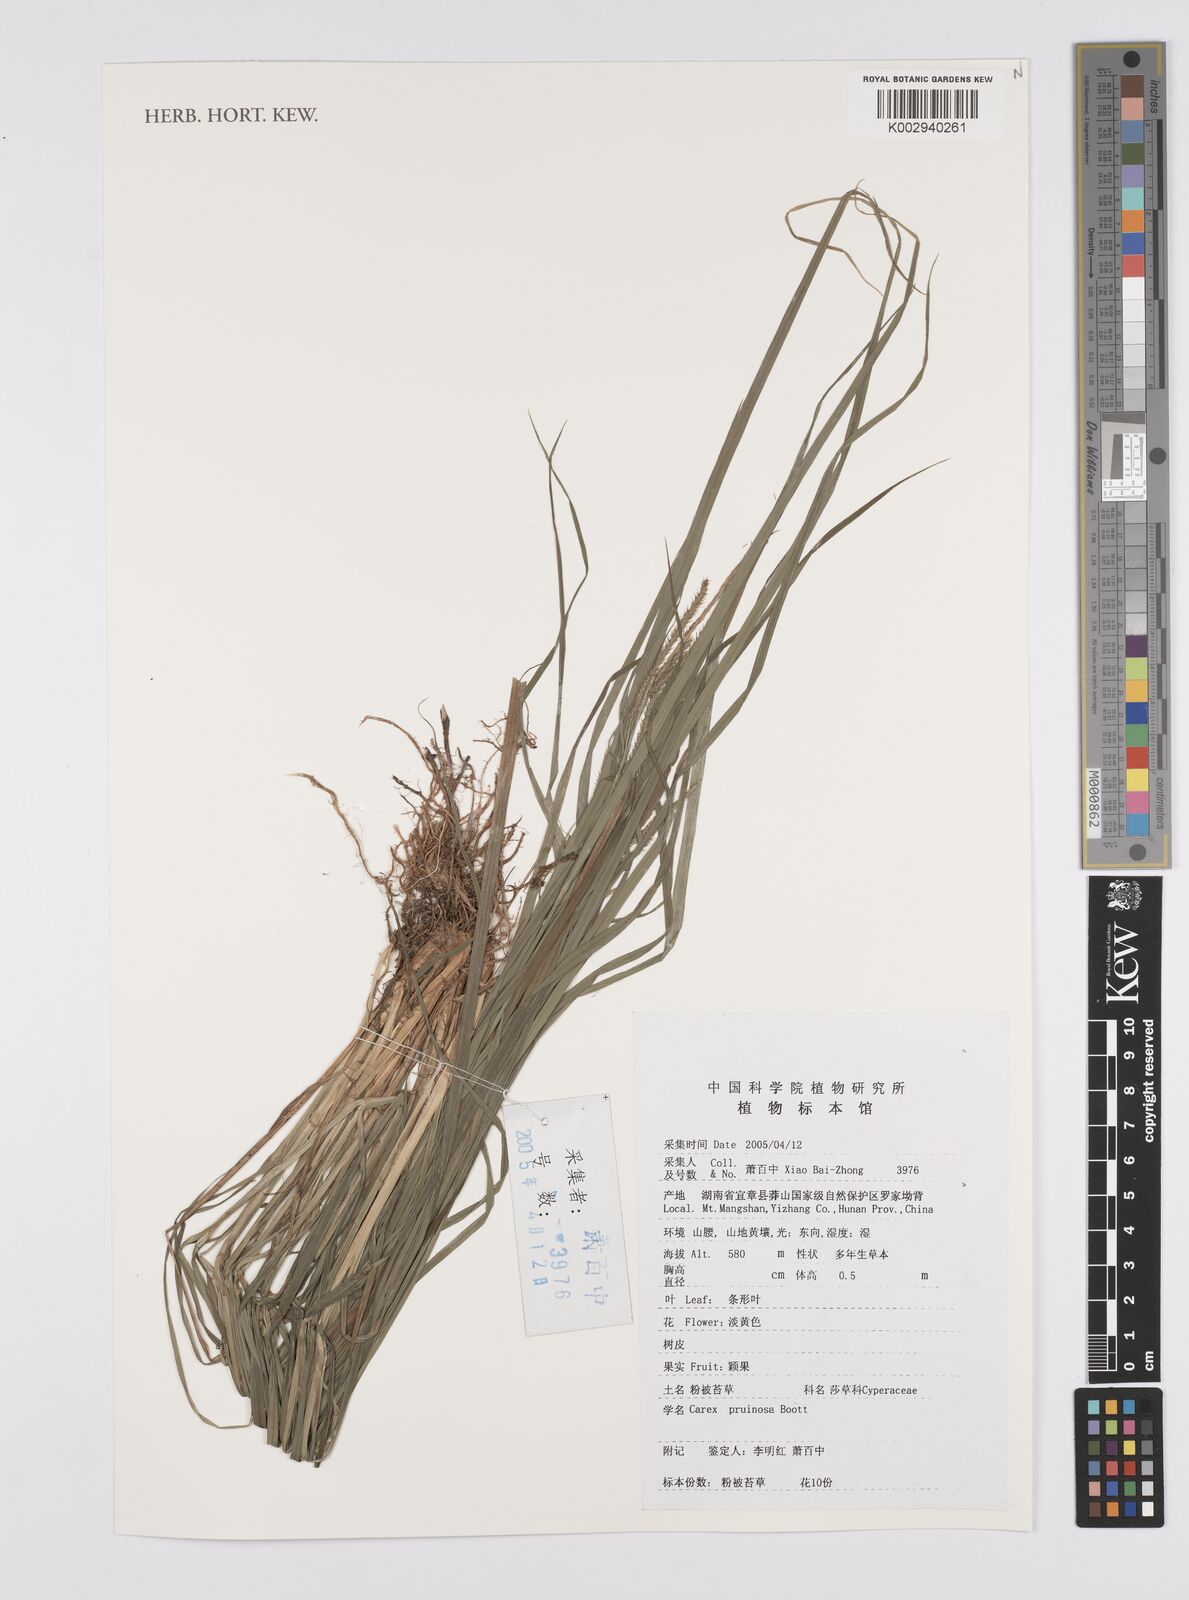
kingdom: Plantae
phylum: Tracheophyta
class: Liliopsida
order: Poales
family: Cyperaceae
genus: Carex
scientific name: Carex pruinosa
